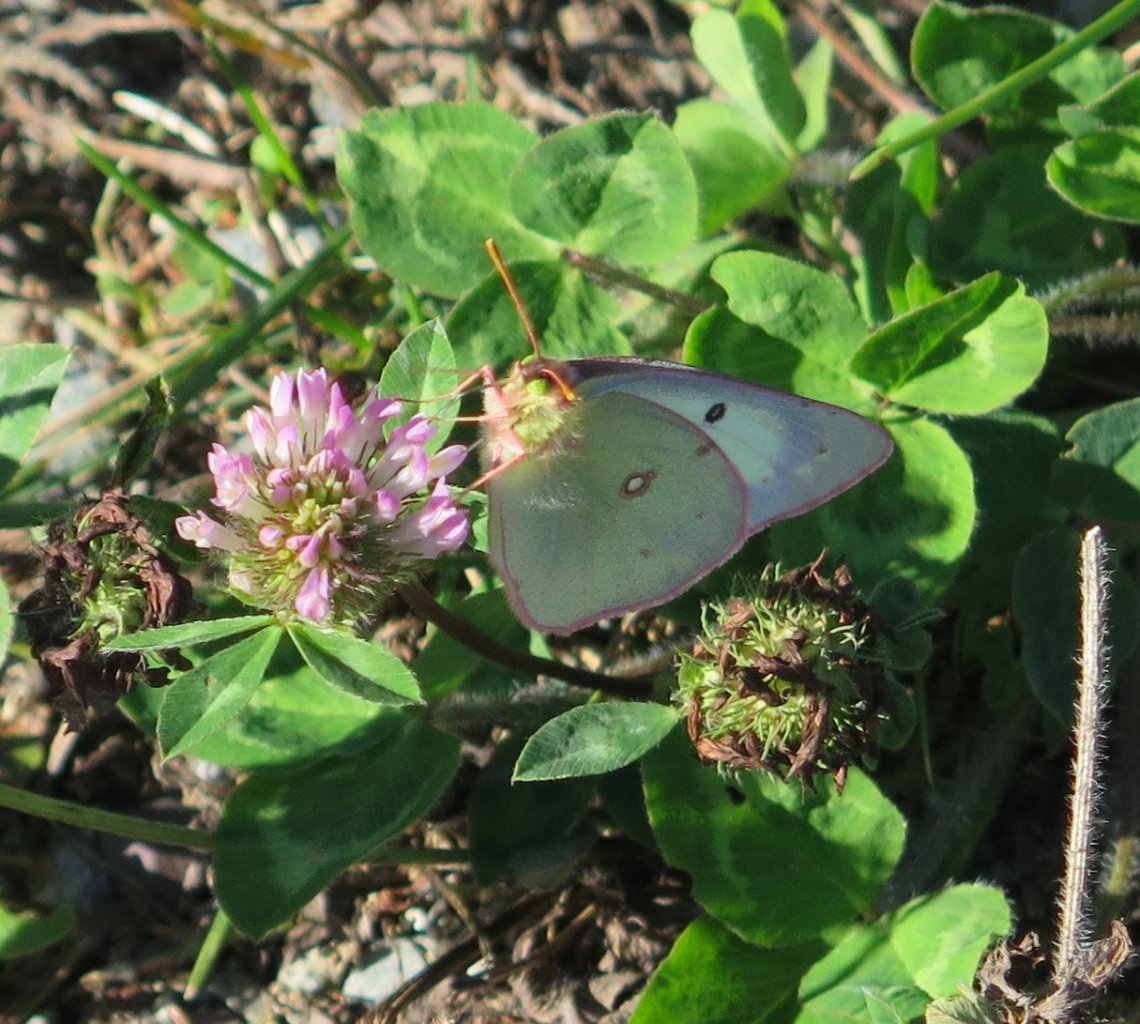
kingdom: Animalia
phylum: Arthropoda
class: Insecta
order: Lepidoptera
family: Pieridae
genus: Colias
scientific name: Colias philodice
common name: Clouded Sulphur
